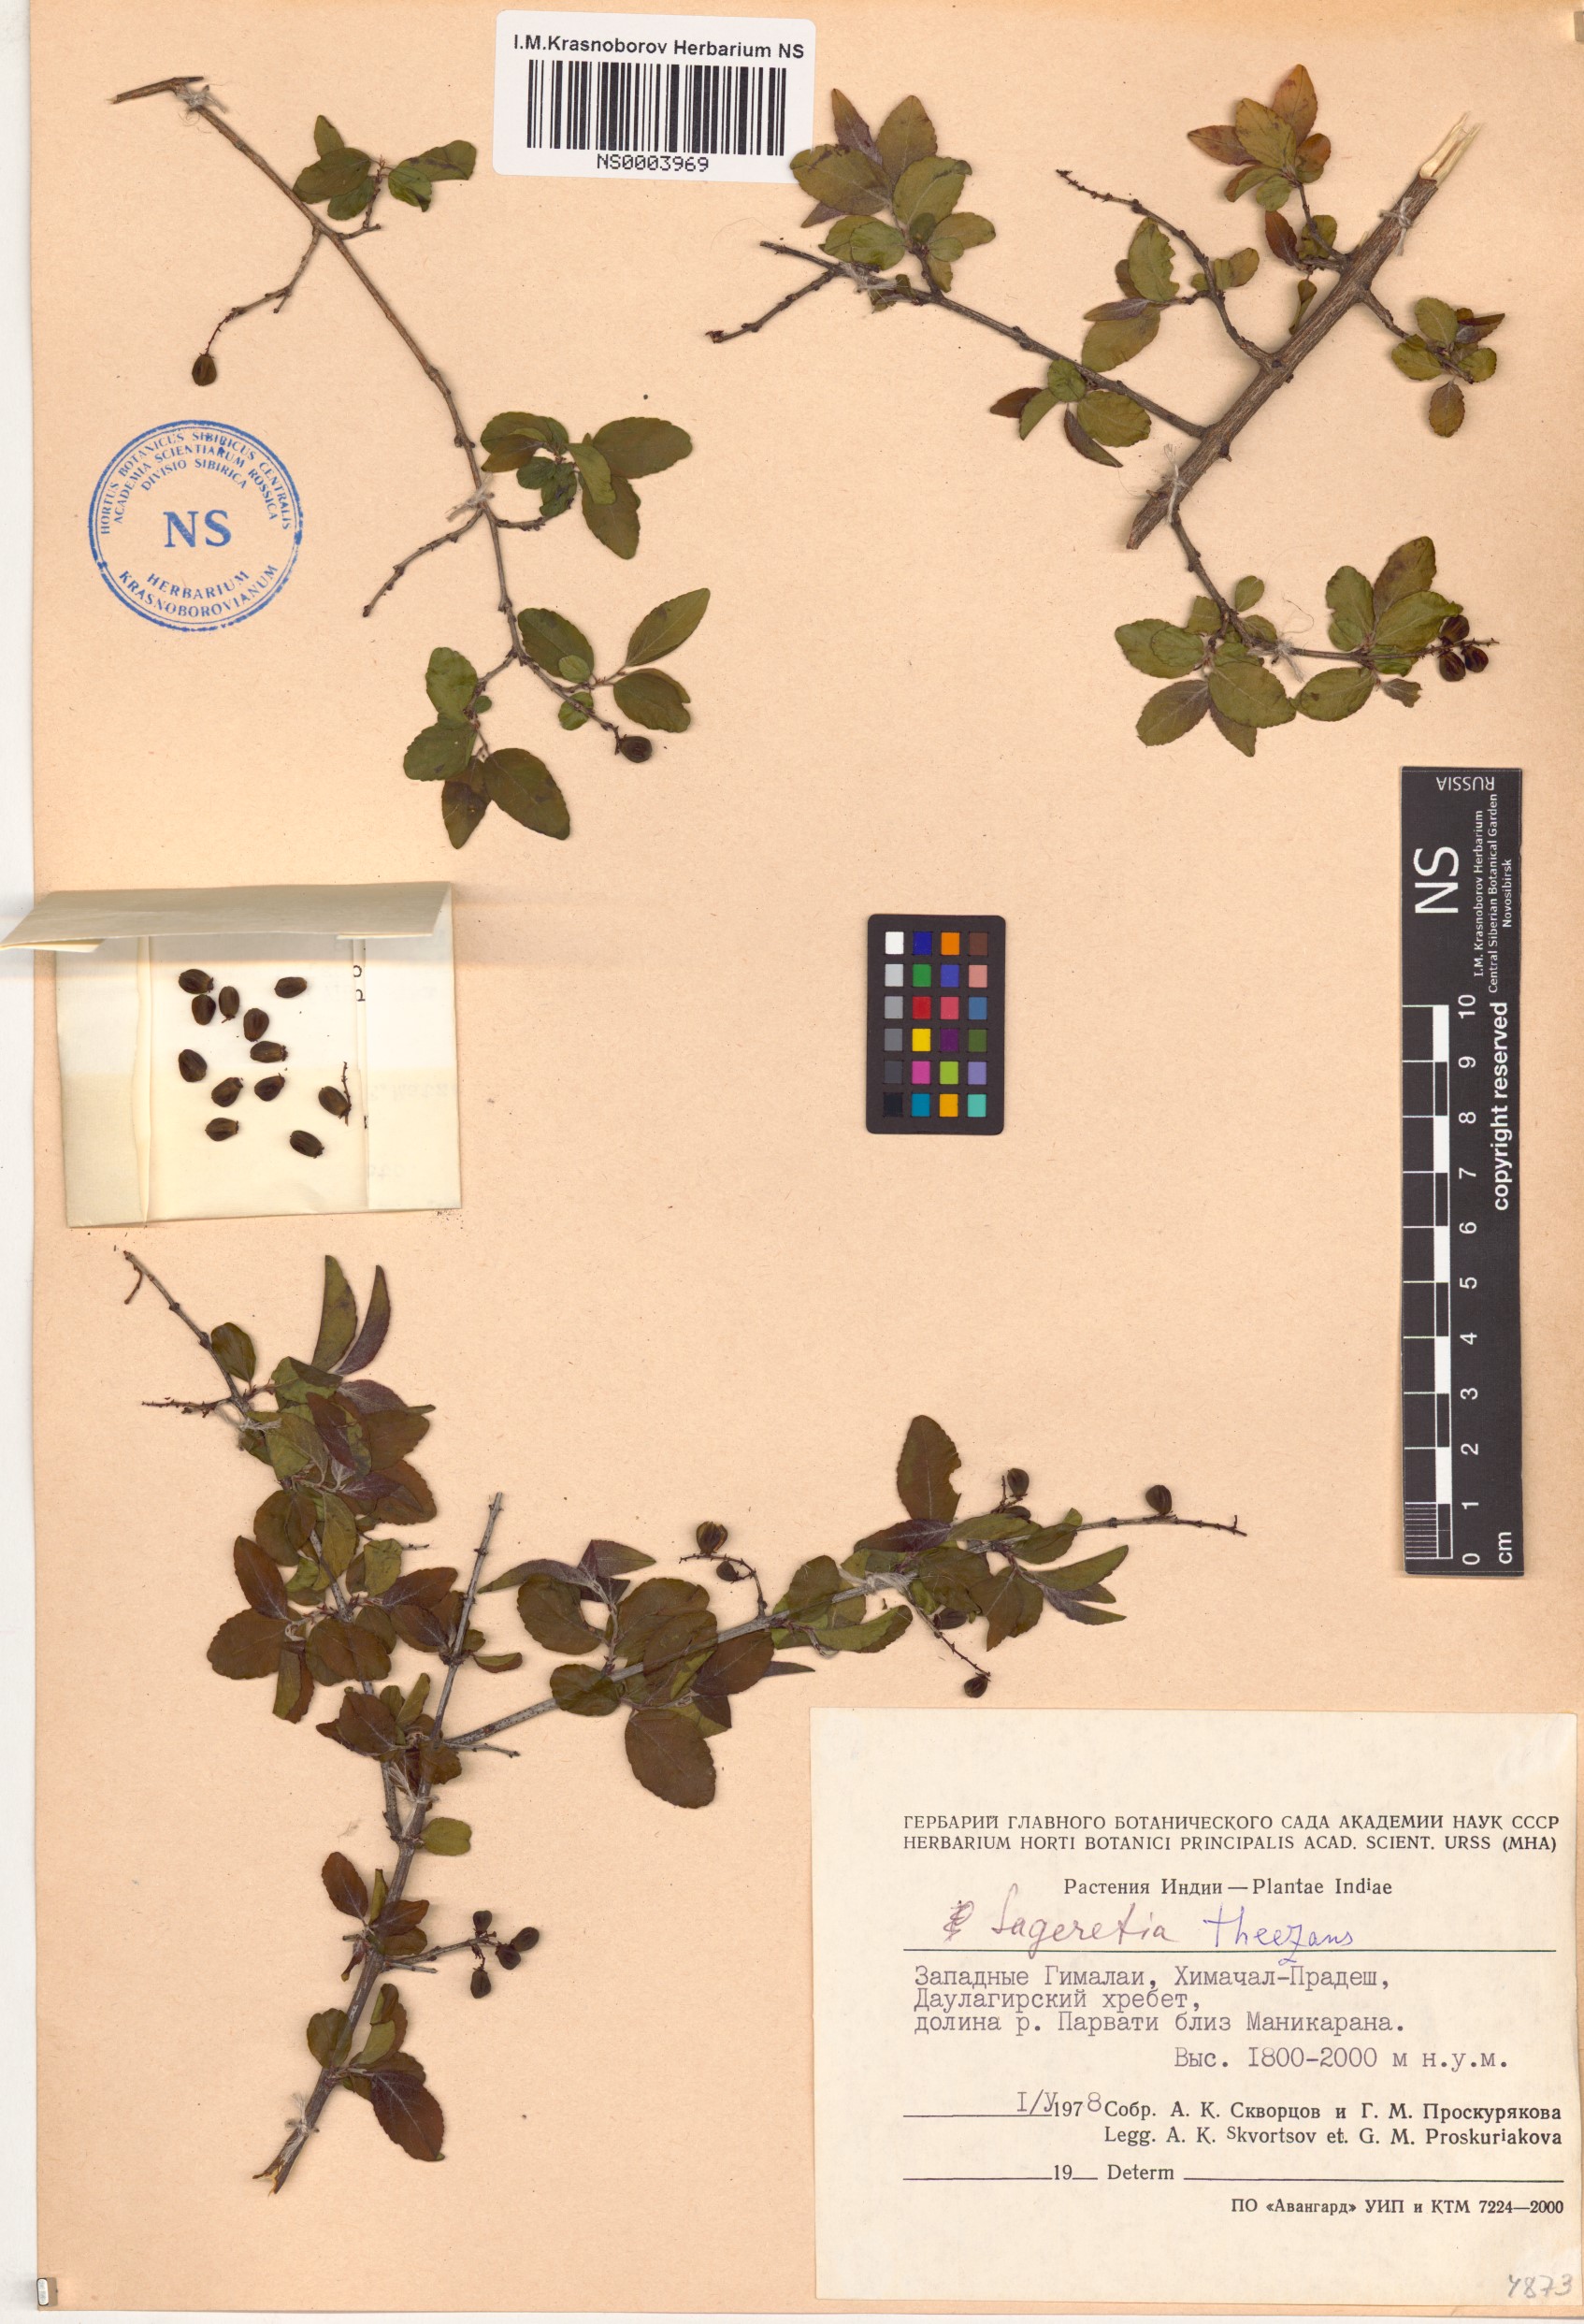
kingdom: Plantae
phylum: Tracheophyta
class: Magnoliopsida
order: Rosales
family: Rhamnaceae
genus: Sageretia
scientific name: Sageretia thea
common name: Pauper's-tea
